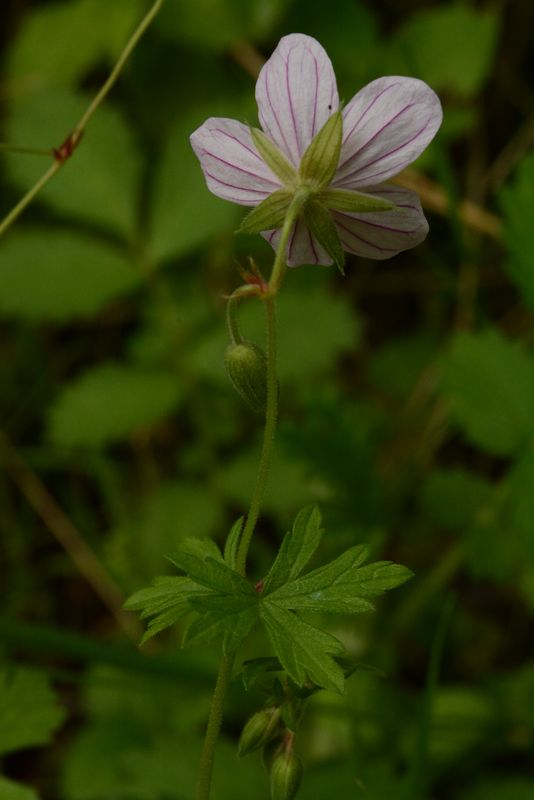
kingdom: Plantae
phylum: Tracheophyta
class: Magnoliopsida
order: Geraniales
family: Geraniaceae
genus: Geranium
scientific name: Geranium collinum
